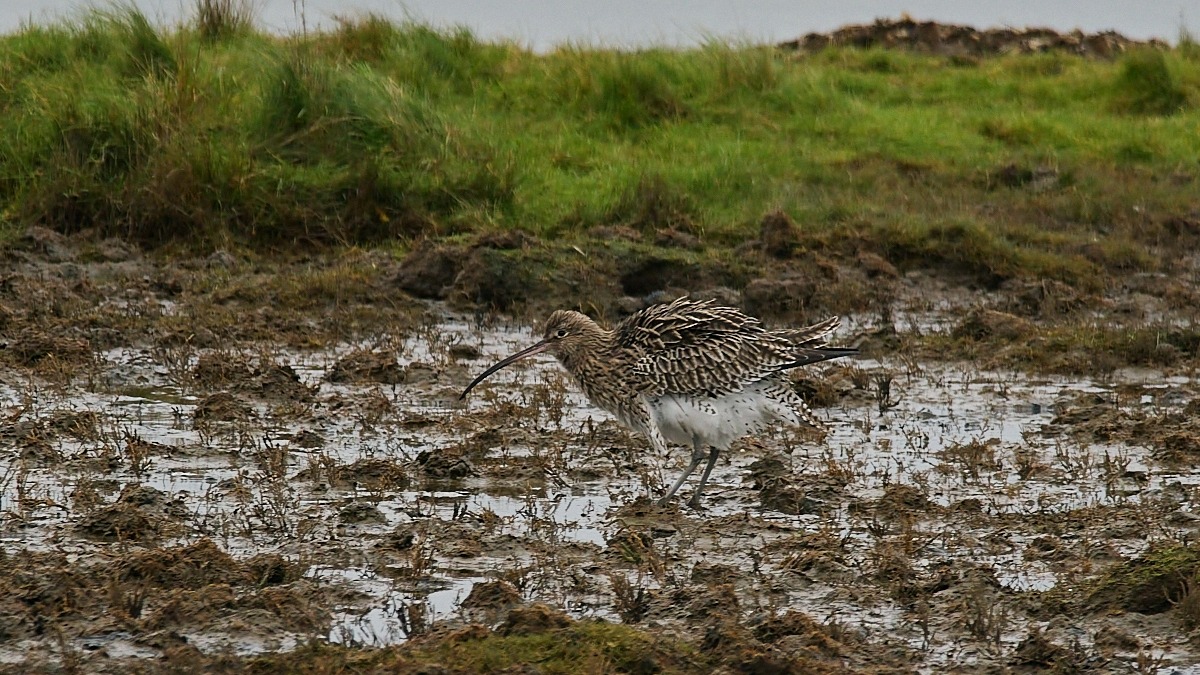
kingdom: Animalia
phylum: Chordata
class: Aves
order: Charadriiformes
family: Scolopacidae
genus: Numenius
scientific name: Numenius arquata
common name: Storspove
